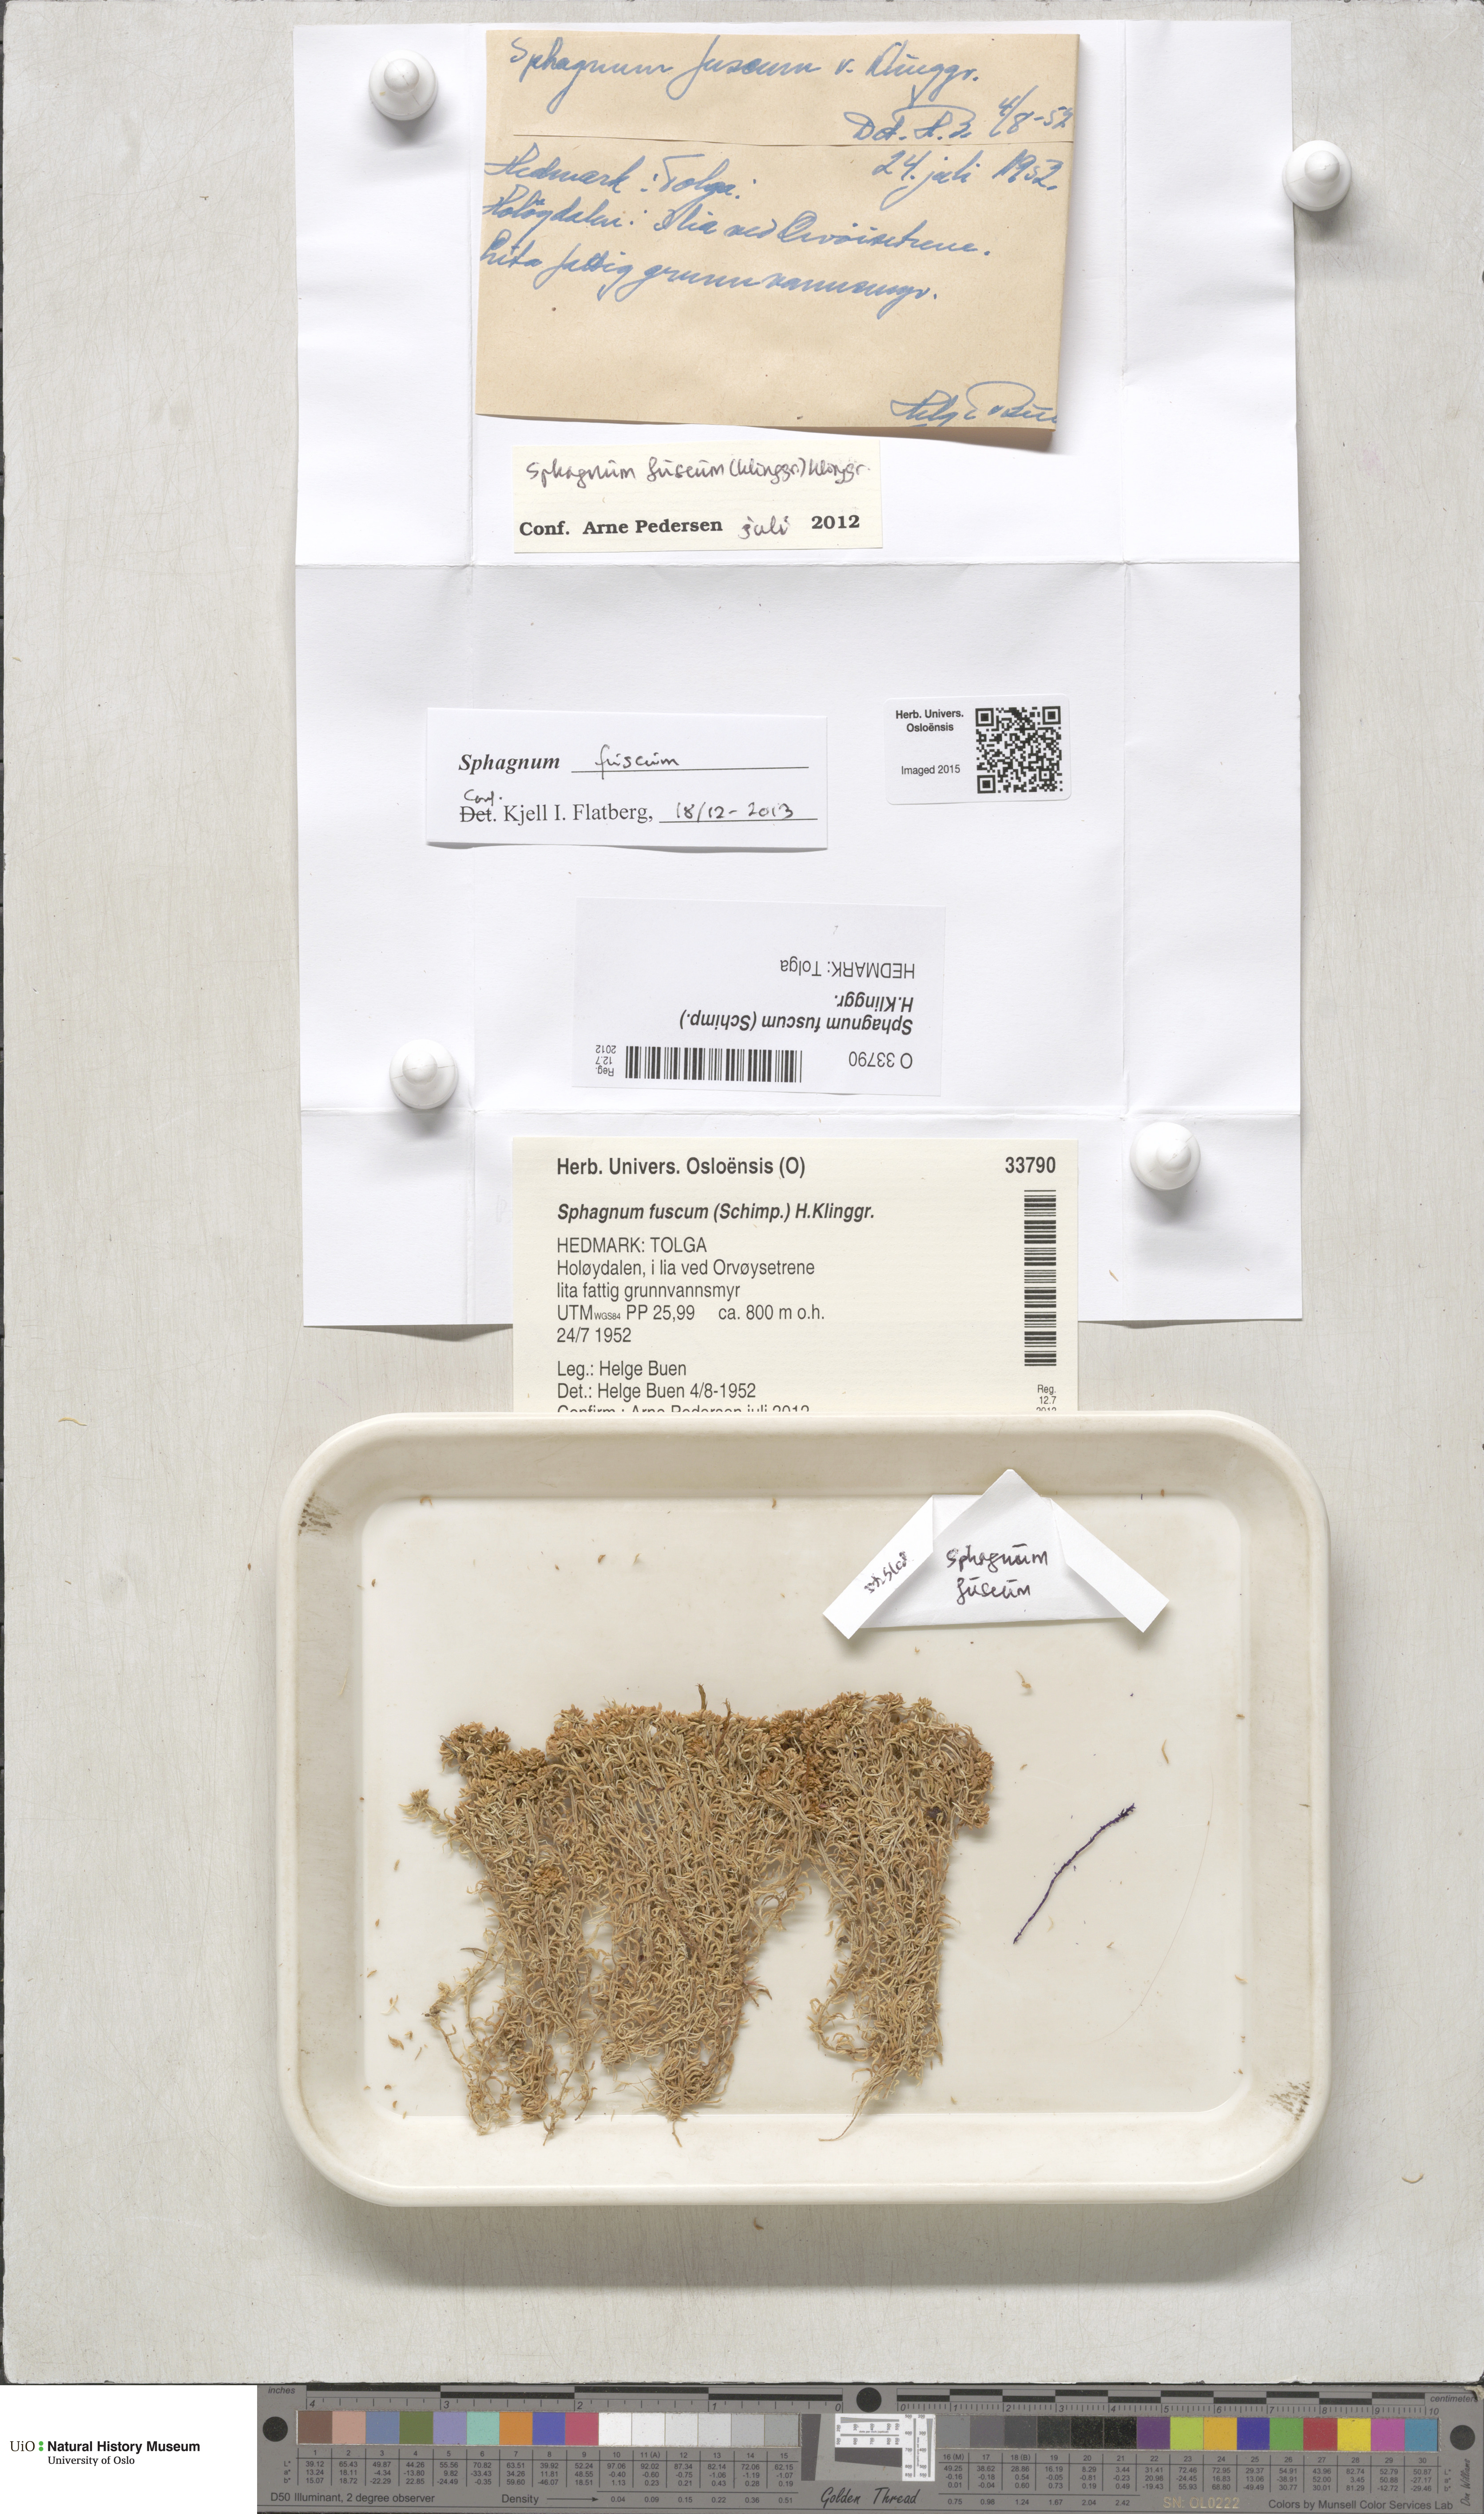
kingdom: Plantae
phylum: Bryophyta
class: Sphagnopsida
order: Sphagnales
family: Sphagnaceae
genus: Sphagnum
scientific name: Sphagnum fuscum
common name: Brown peat moss
